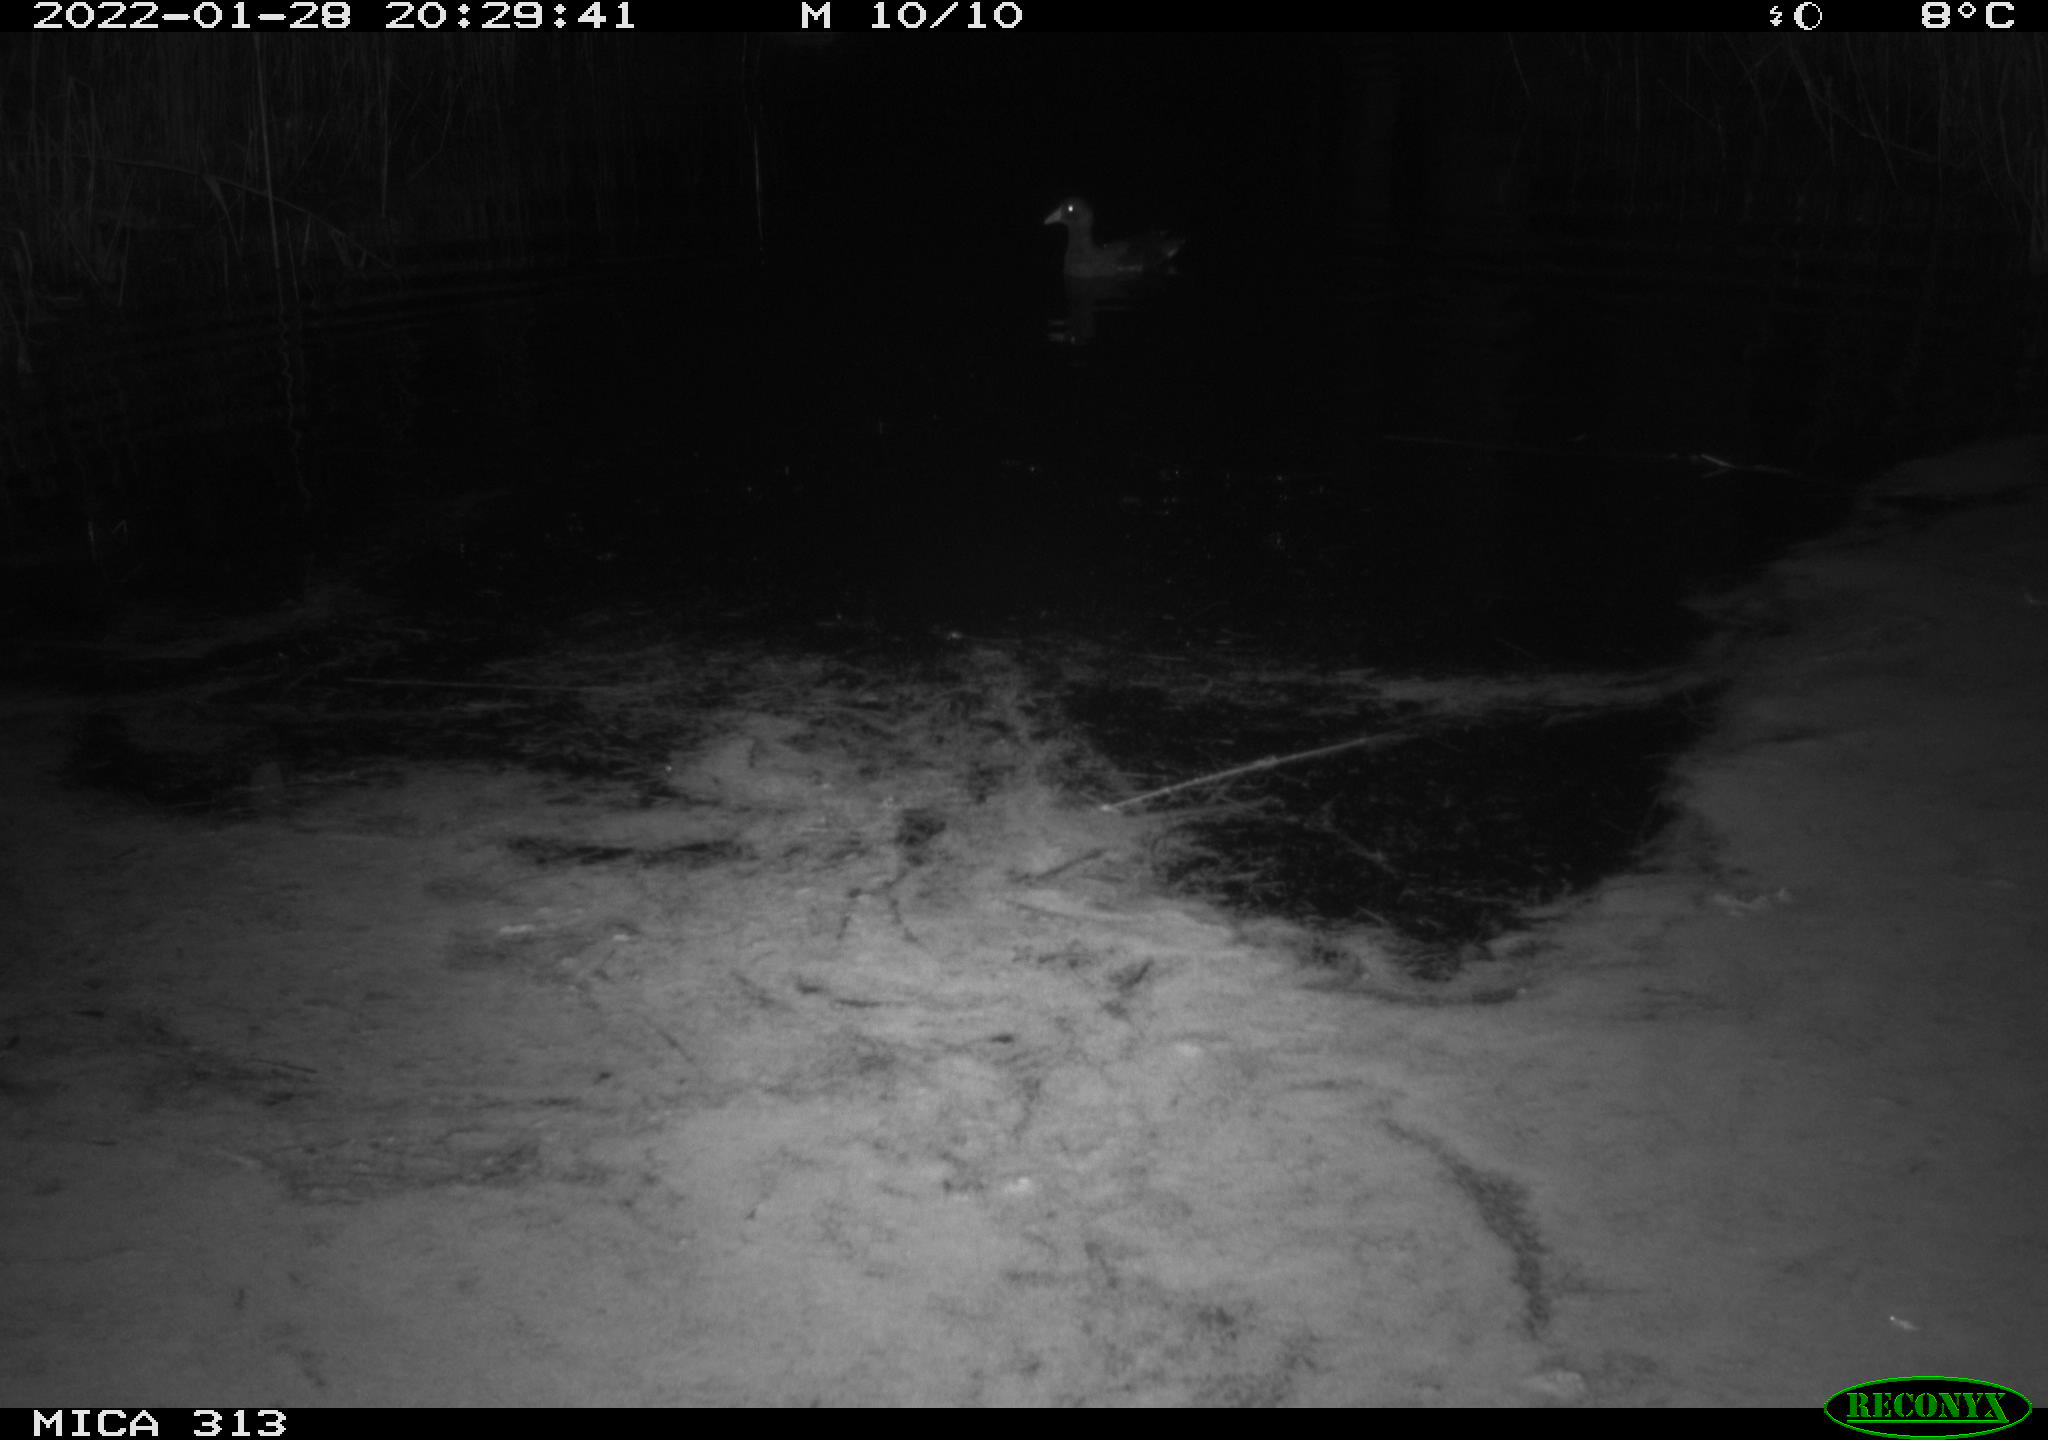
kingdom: Animalia
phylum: Chordata
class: Aves
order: Anseriformes
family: Anatidae
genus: Anas
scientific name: Anas
